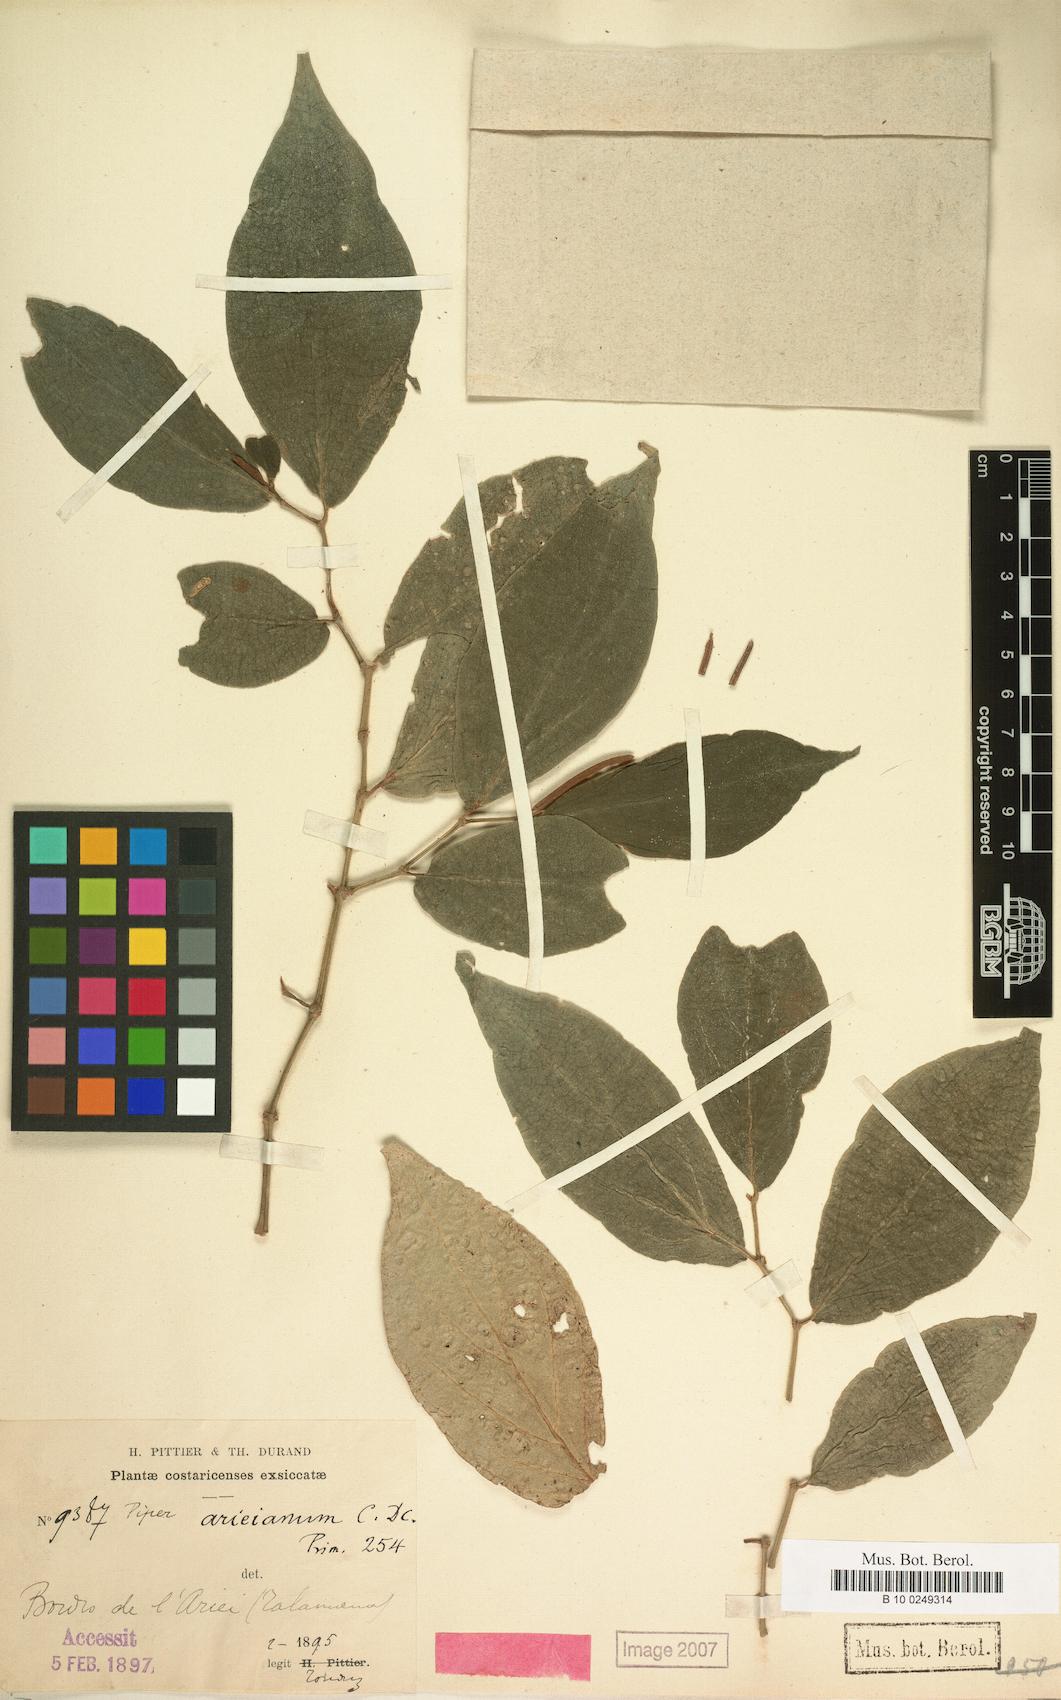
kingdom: Plantae
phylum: Tracheophyta
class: Magnoliopsida
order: Piperales
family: Piperaceae
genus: Piper
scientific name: Piper arieianum
